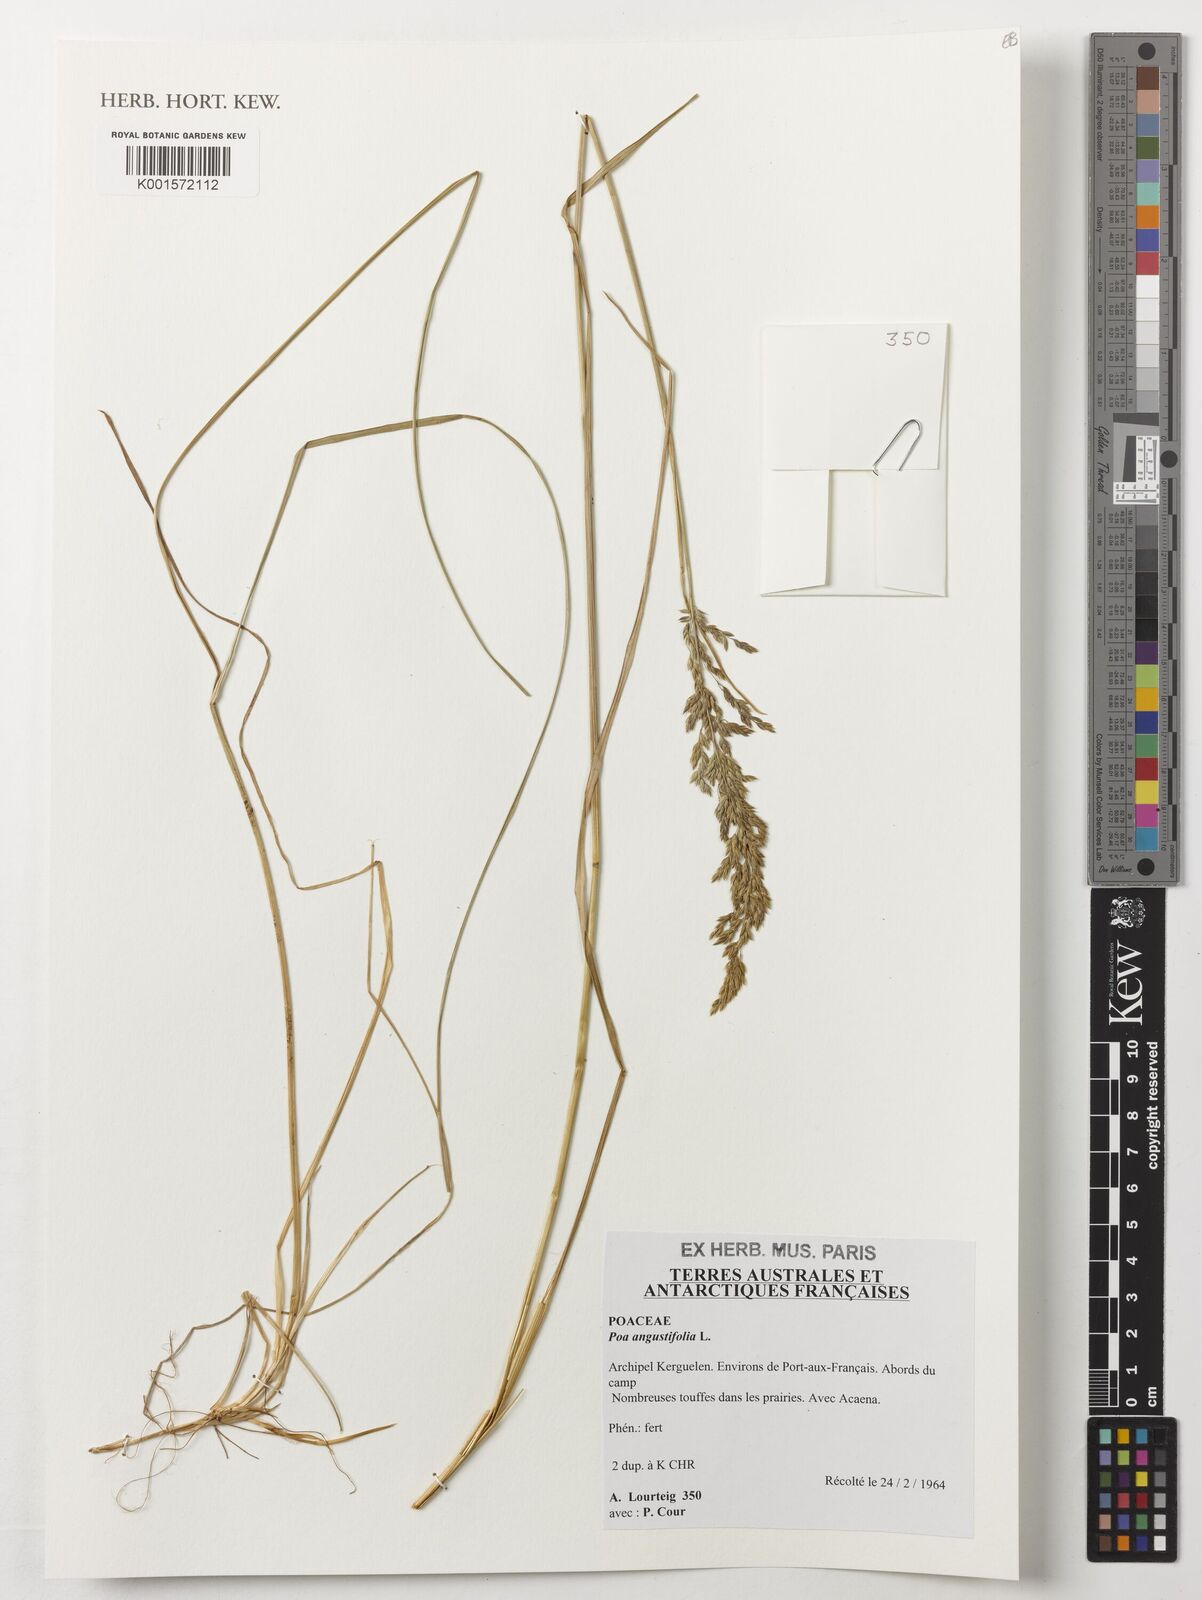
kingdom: Plantae
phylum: Tracheophyta
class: Liliopsida
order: Poales
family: Poaceae
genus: Poa
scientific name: Poa angustifolia
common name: Narrow-leaved meadow-grass
